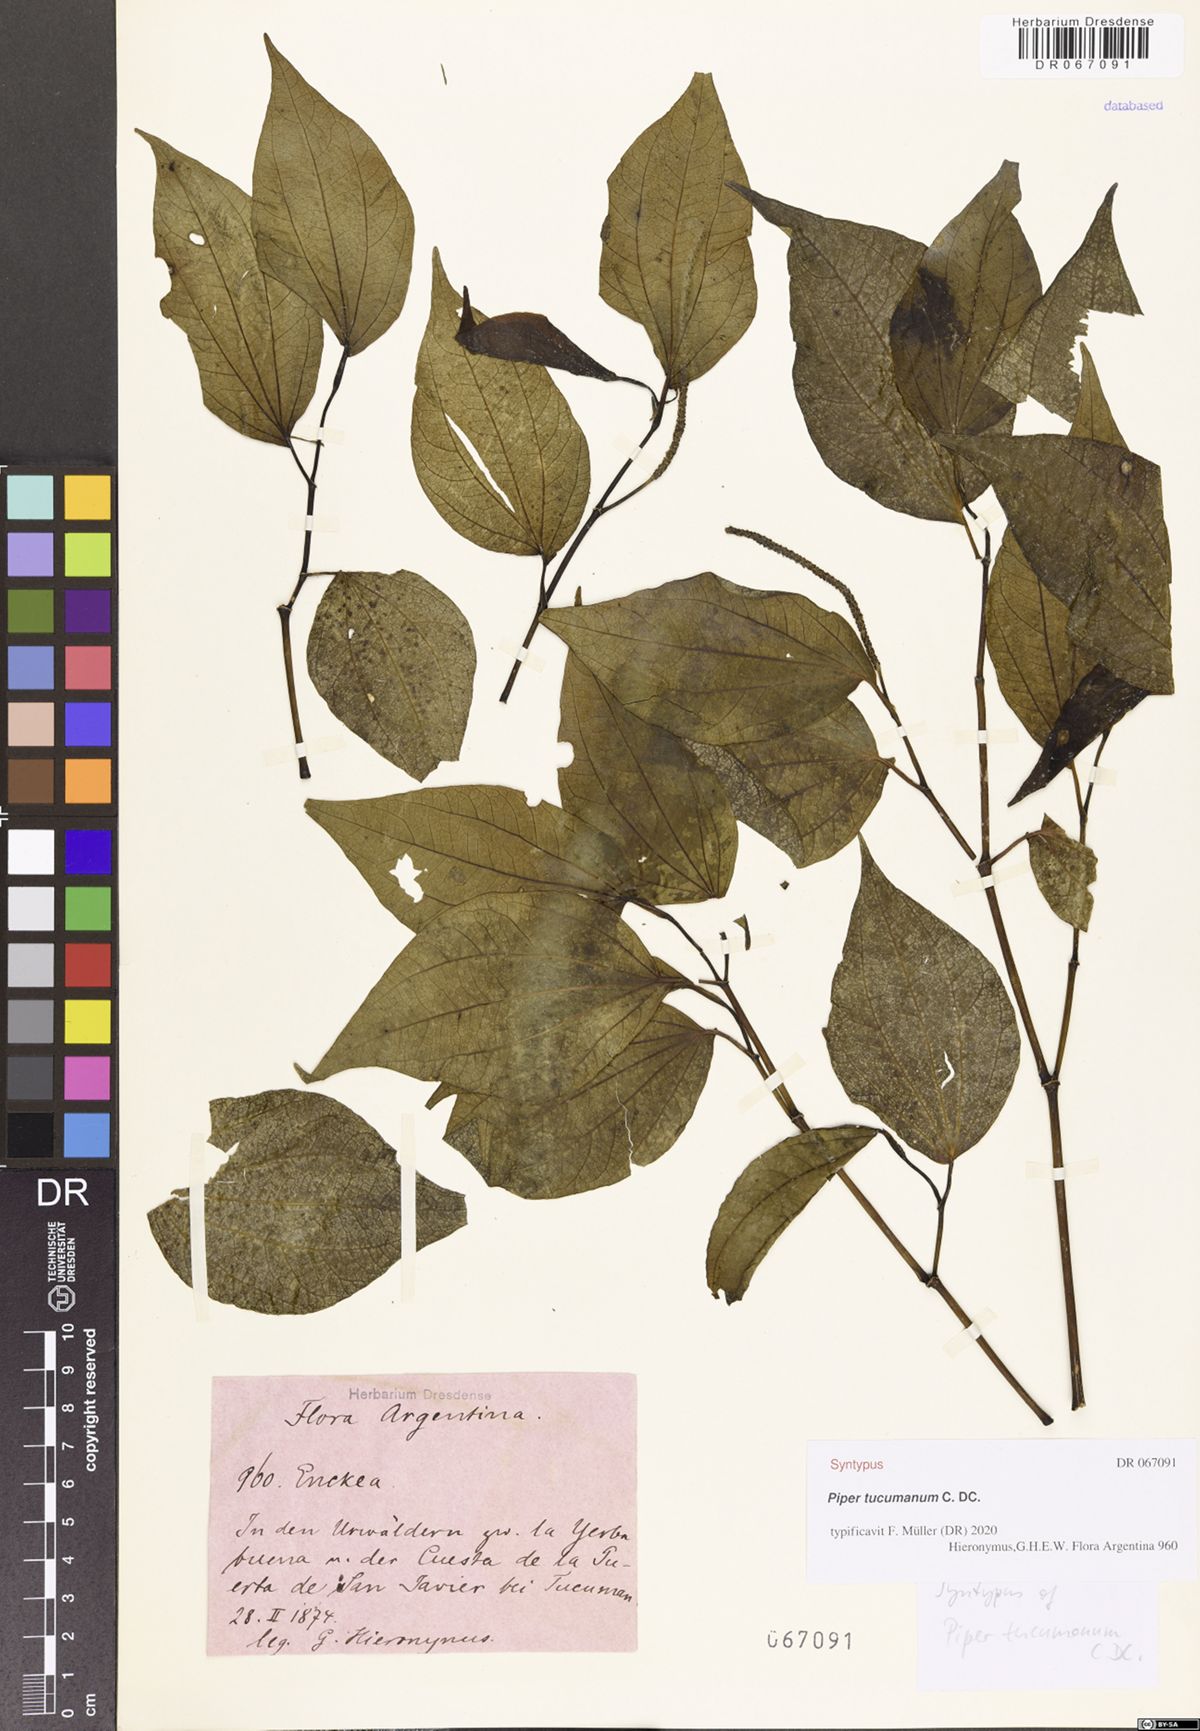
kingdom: Plantae
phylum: Tracheophyta
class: Magnoliopsida
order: Piperales
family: Piperaceae
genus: Piper
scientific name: Piper tucumanum
